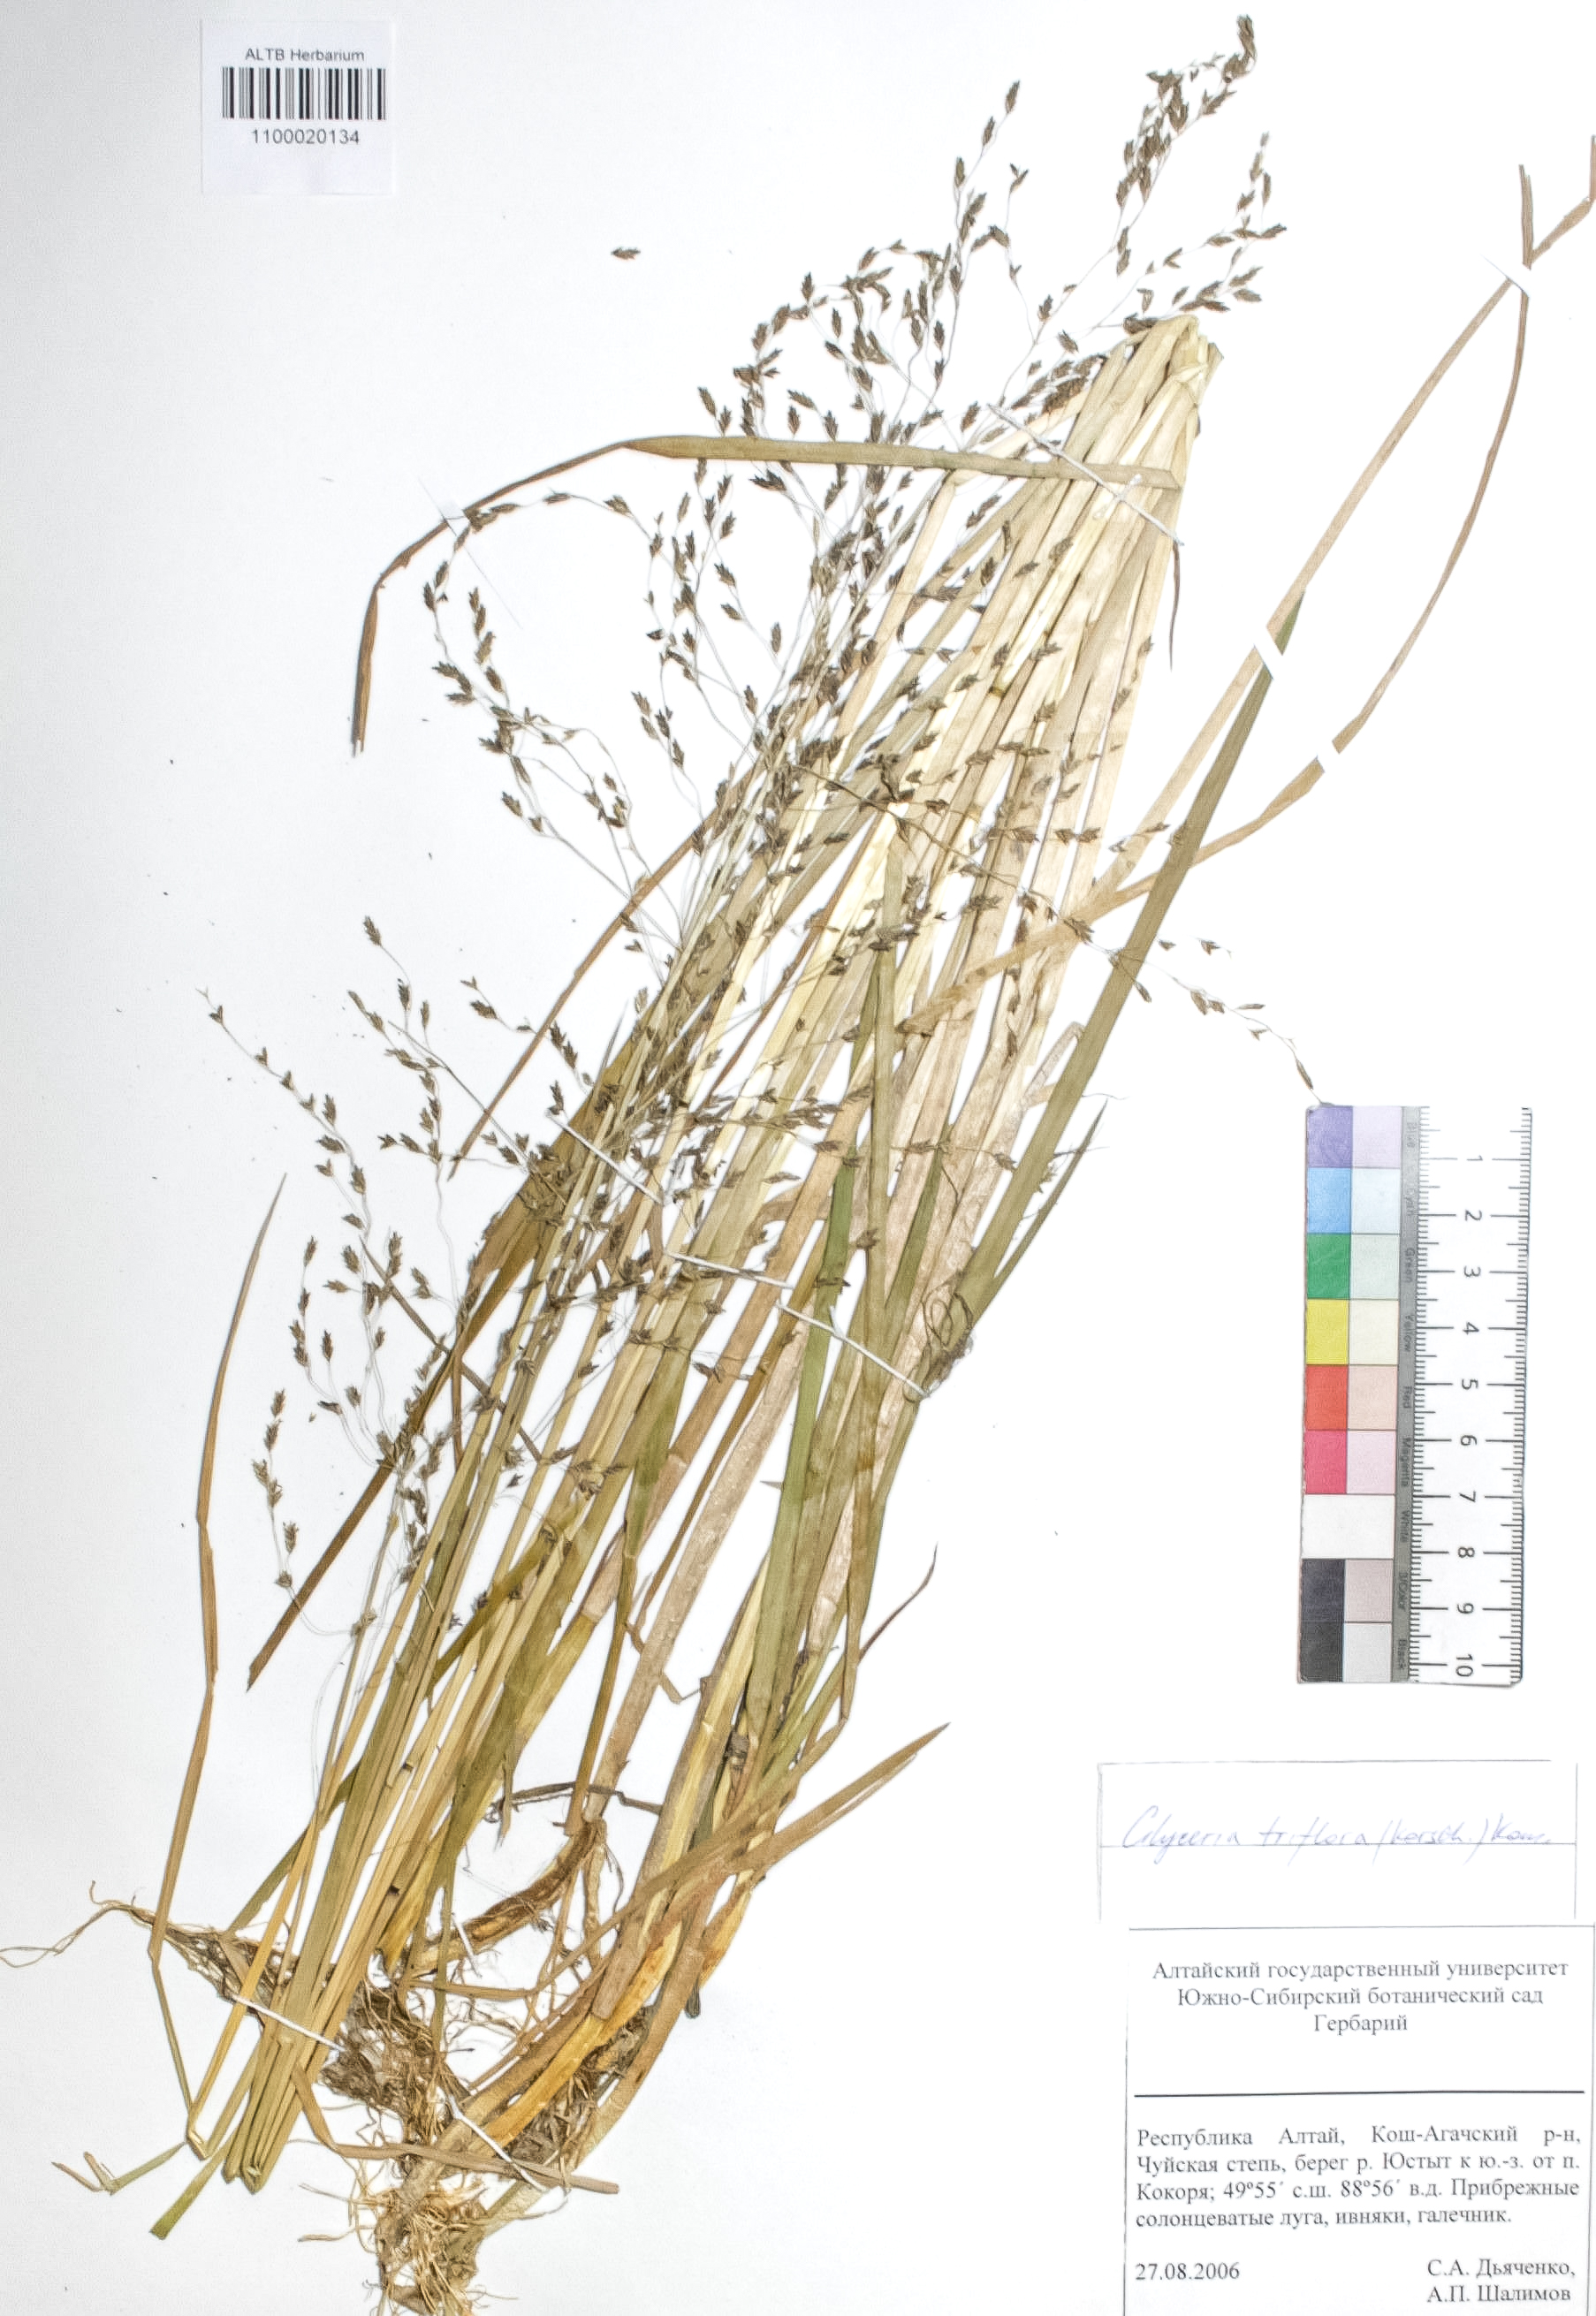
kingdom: Plantae
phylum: Tracheophyta
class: Liliopsida
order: Poales
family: Poaceae
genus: Glyceria
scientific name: Glyceria lithuanica
